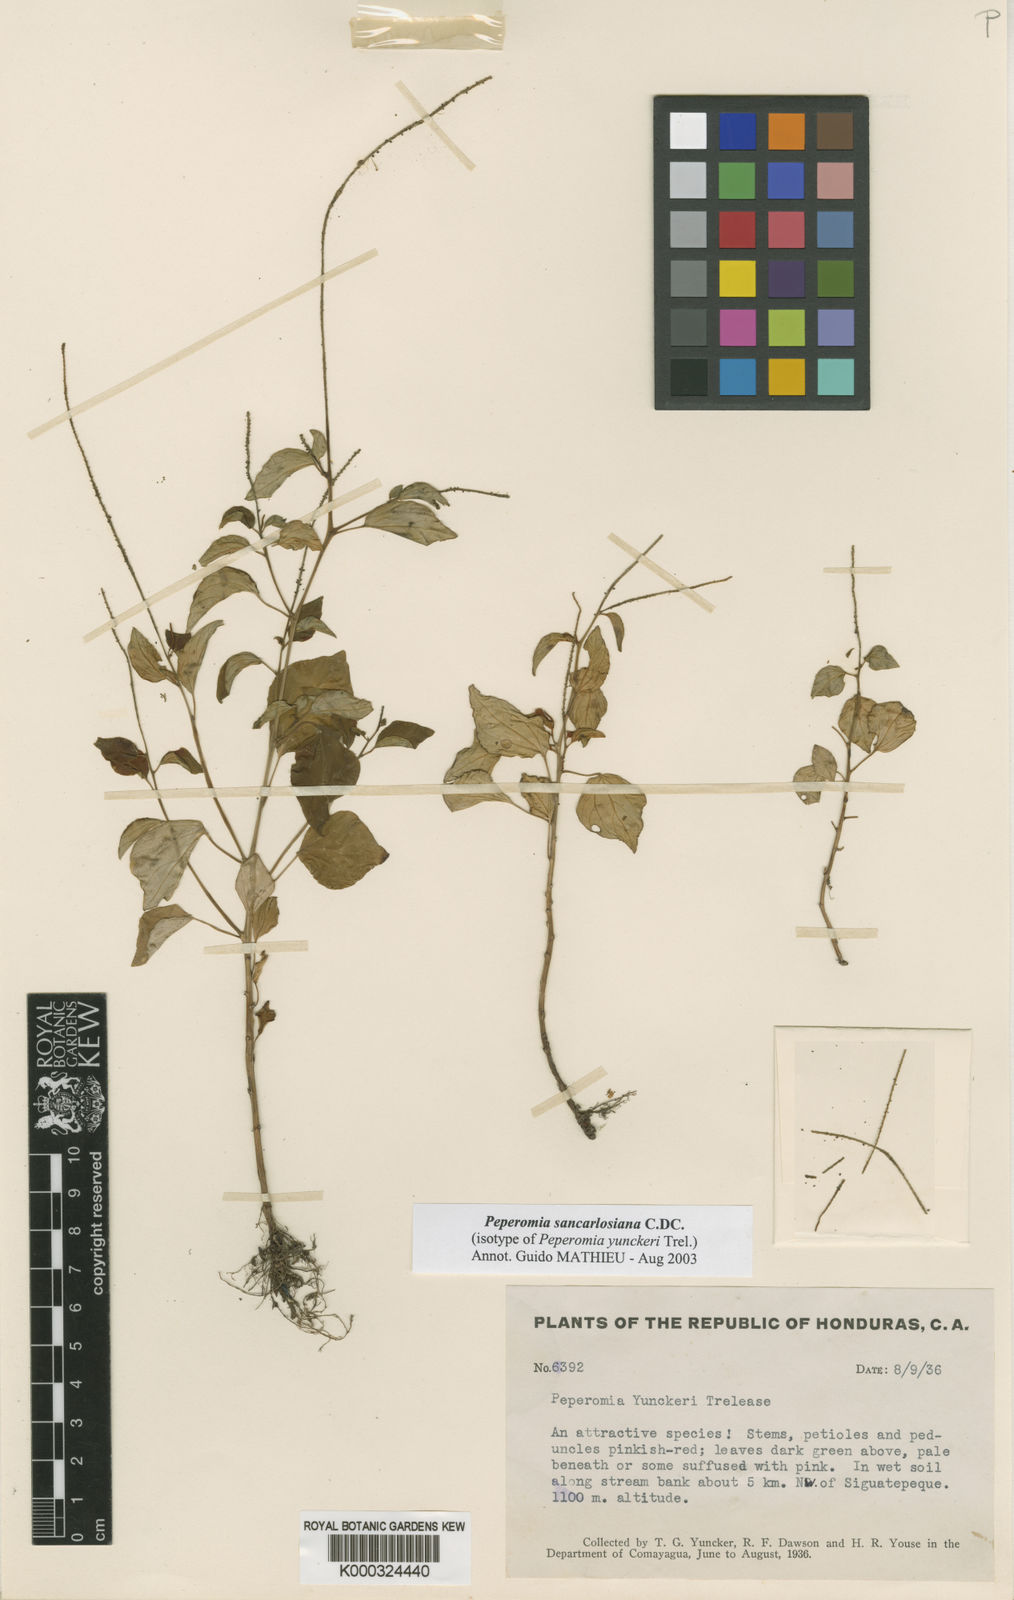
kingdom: Plantae
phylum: Tracheophyta
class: Magnoliopsida
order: Piperales
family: Piperaceae
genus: Peperomia
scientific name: Peperomia san-carlosiana
